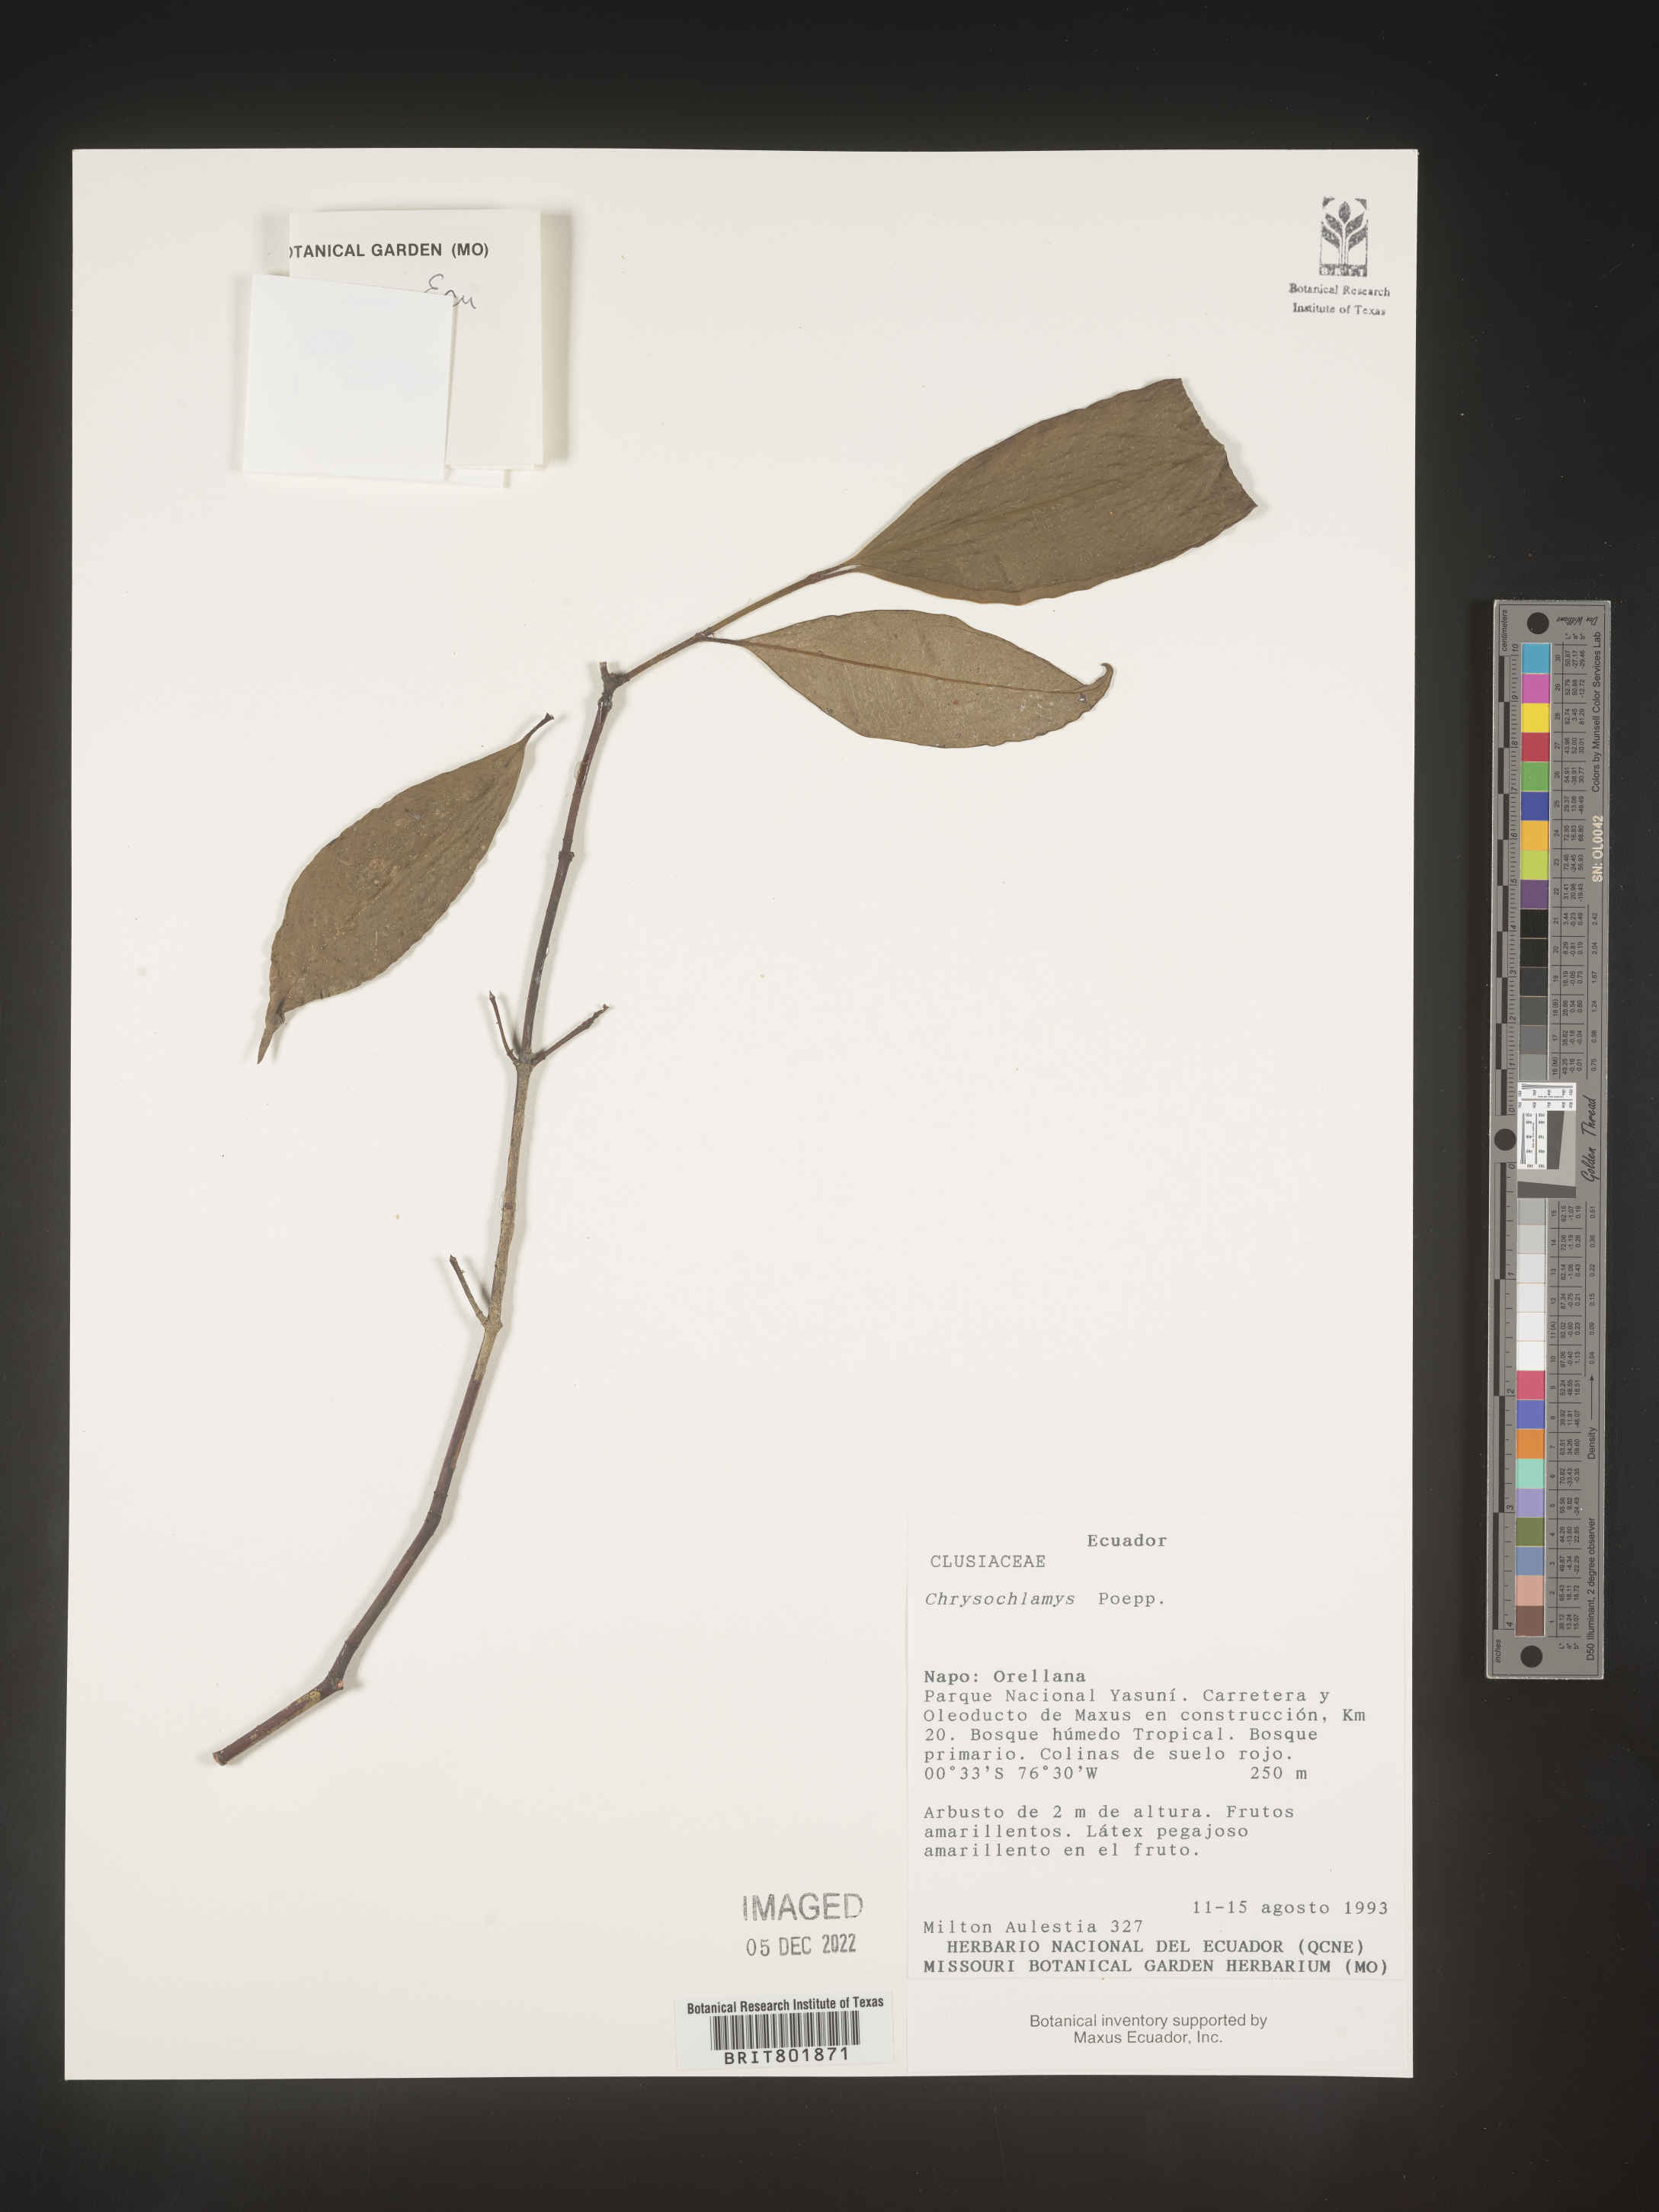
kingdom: Plantae
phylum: Tracheophyta
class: Magnoliopsida
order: Malpighiales
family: Clusiaceae
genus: Chrysochlamys
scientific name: Chrysochlamys
